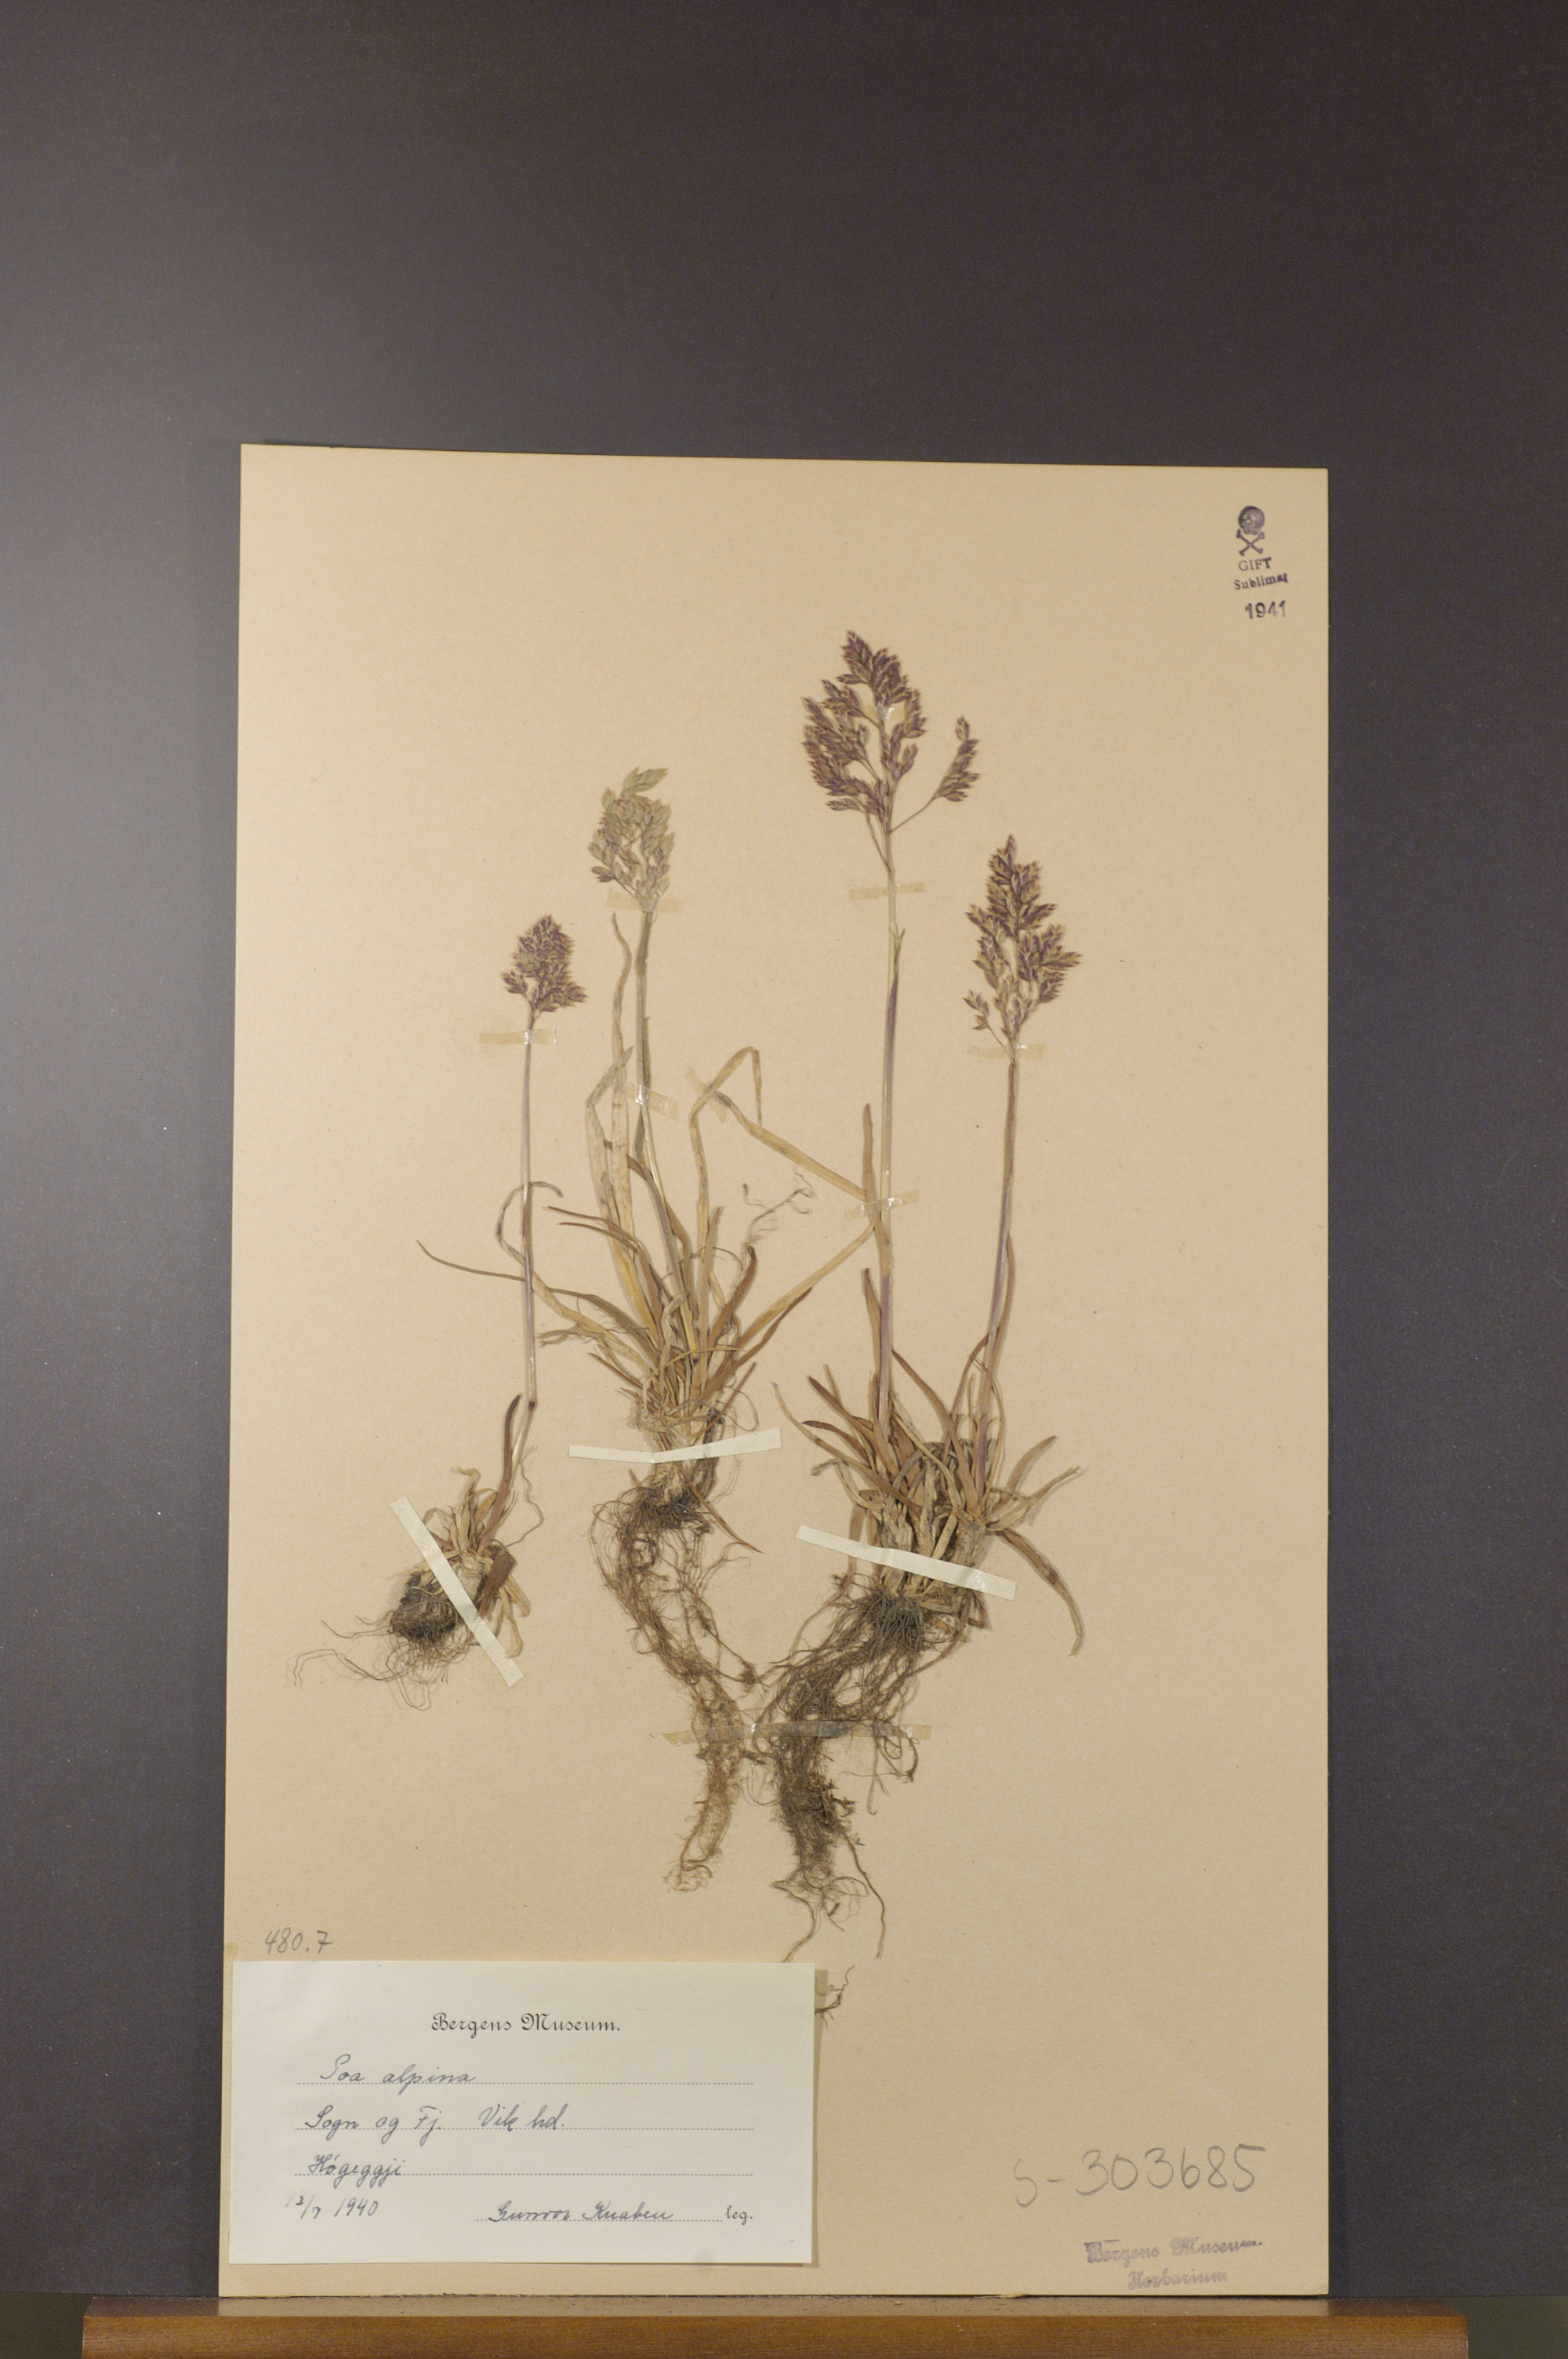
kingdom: Plantae
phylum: Tracheophyta
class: Liliopsida
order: Poales
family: Poaceae
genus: Poa
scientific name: Poa alpina
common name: Alpine bluegrass
